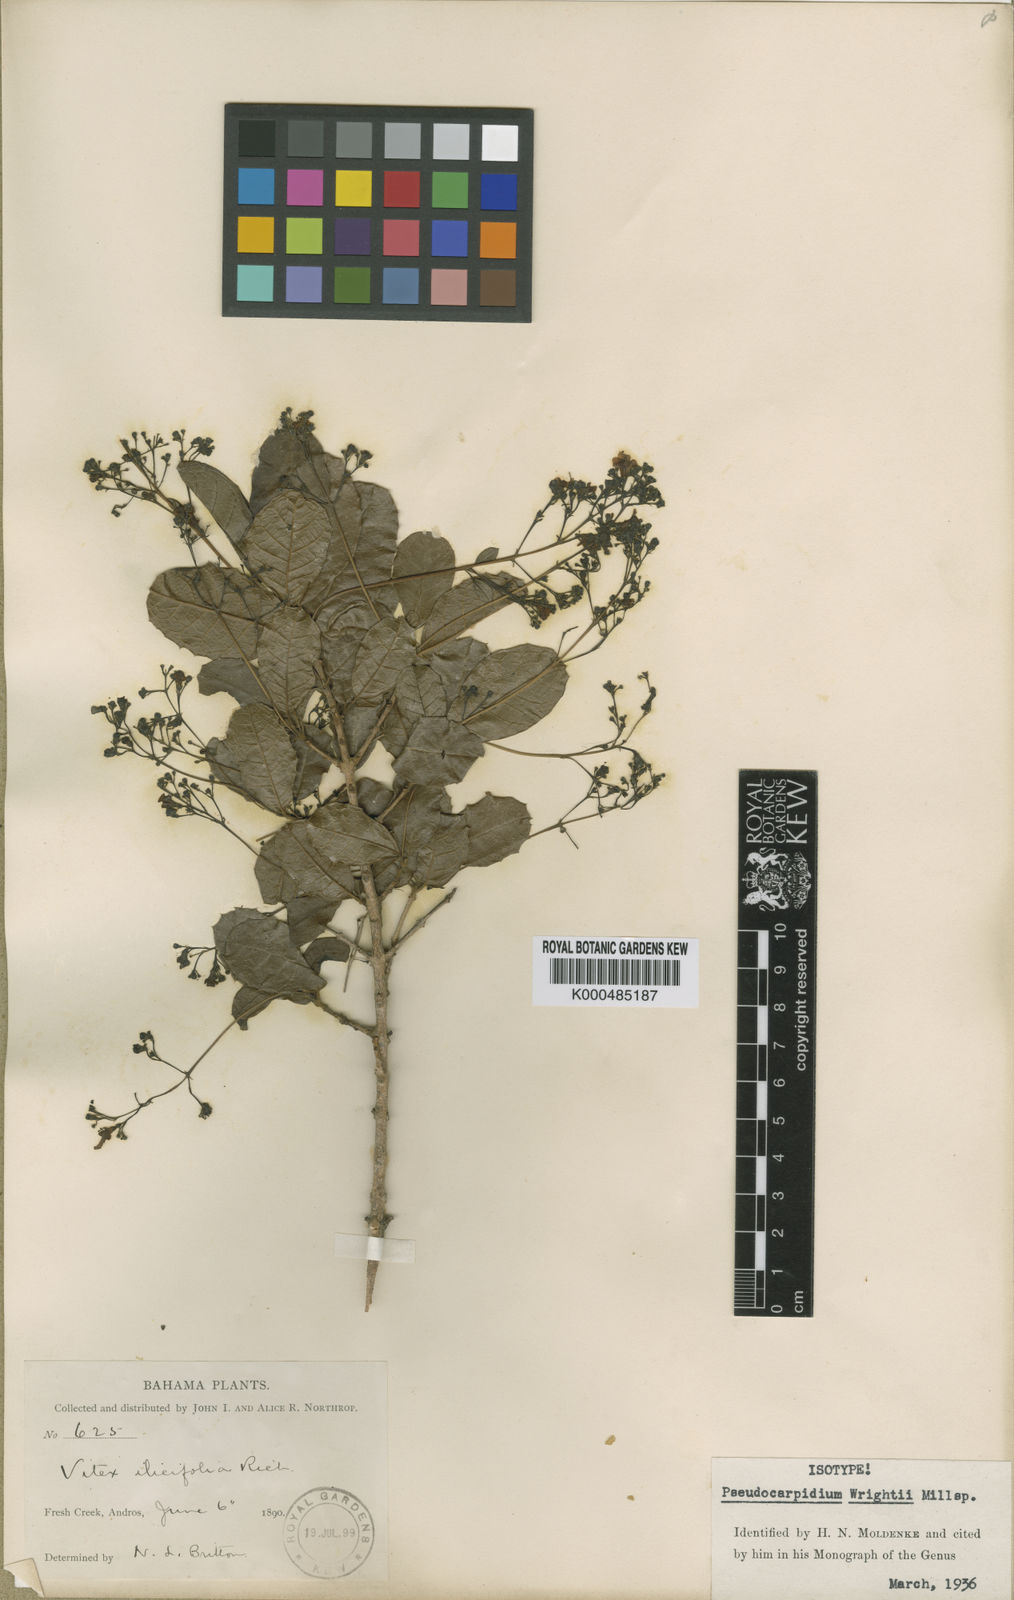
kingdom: Plantae
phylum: Tracheophyta
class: Magnoliopsida
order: Lamiales
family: Lamiaceae
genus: Pseudocarpidium
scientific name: Pseudocarpidium wrightii
